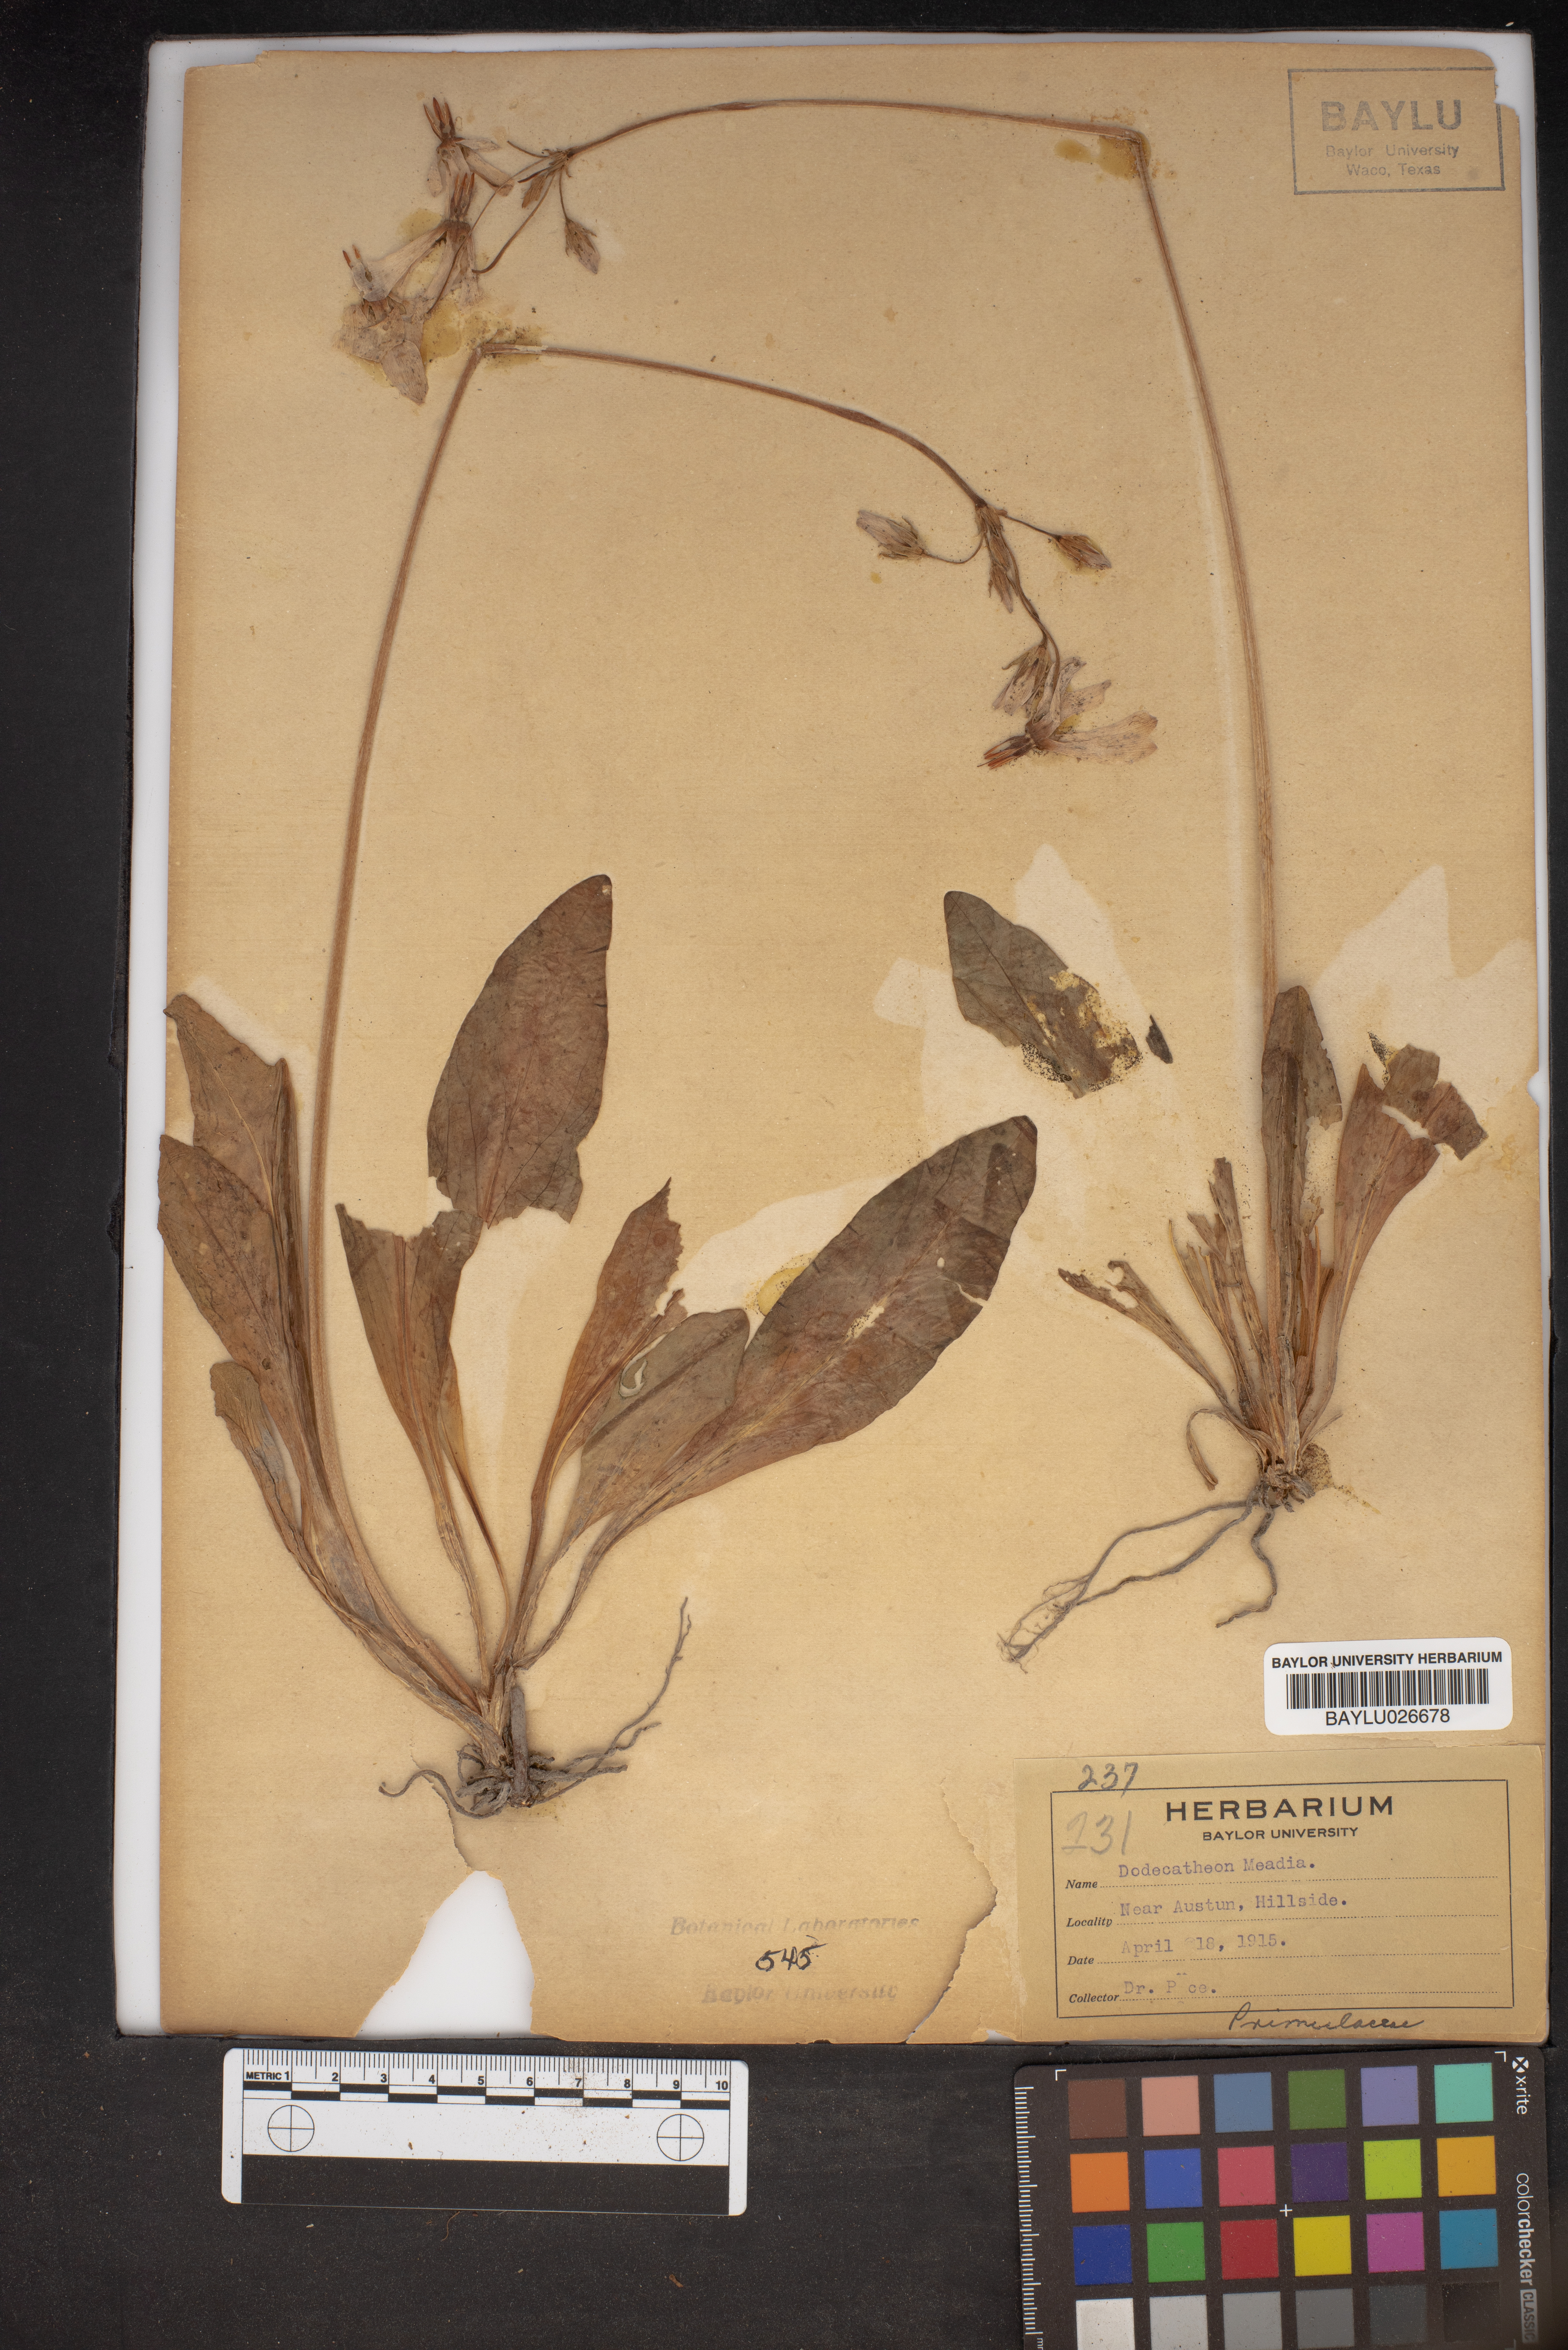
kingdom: Plantae
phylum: Tracheophyta
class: Magnoliopsida
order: Ericales
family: Primulaceae
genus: Dodecatheon
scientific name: Dodecatheon meadia
